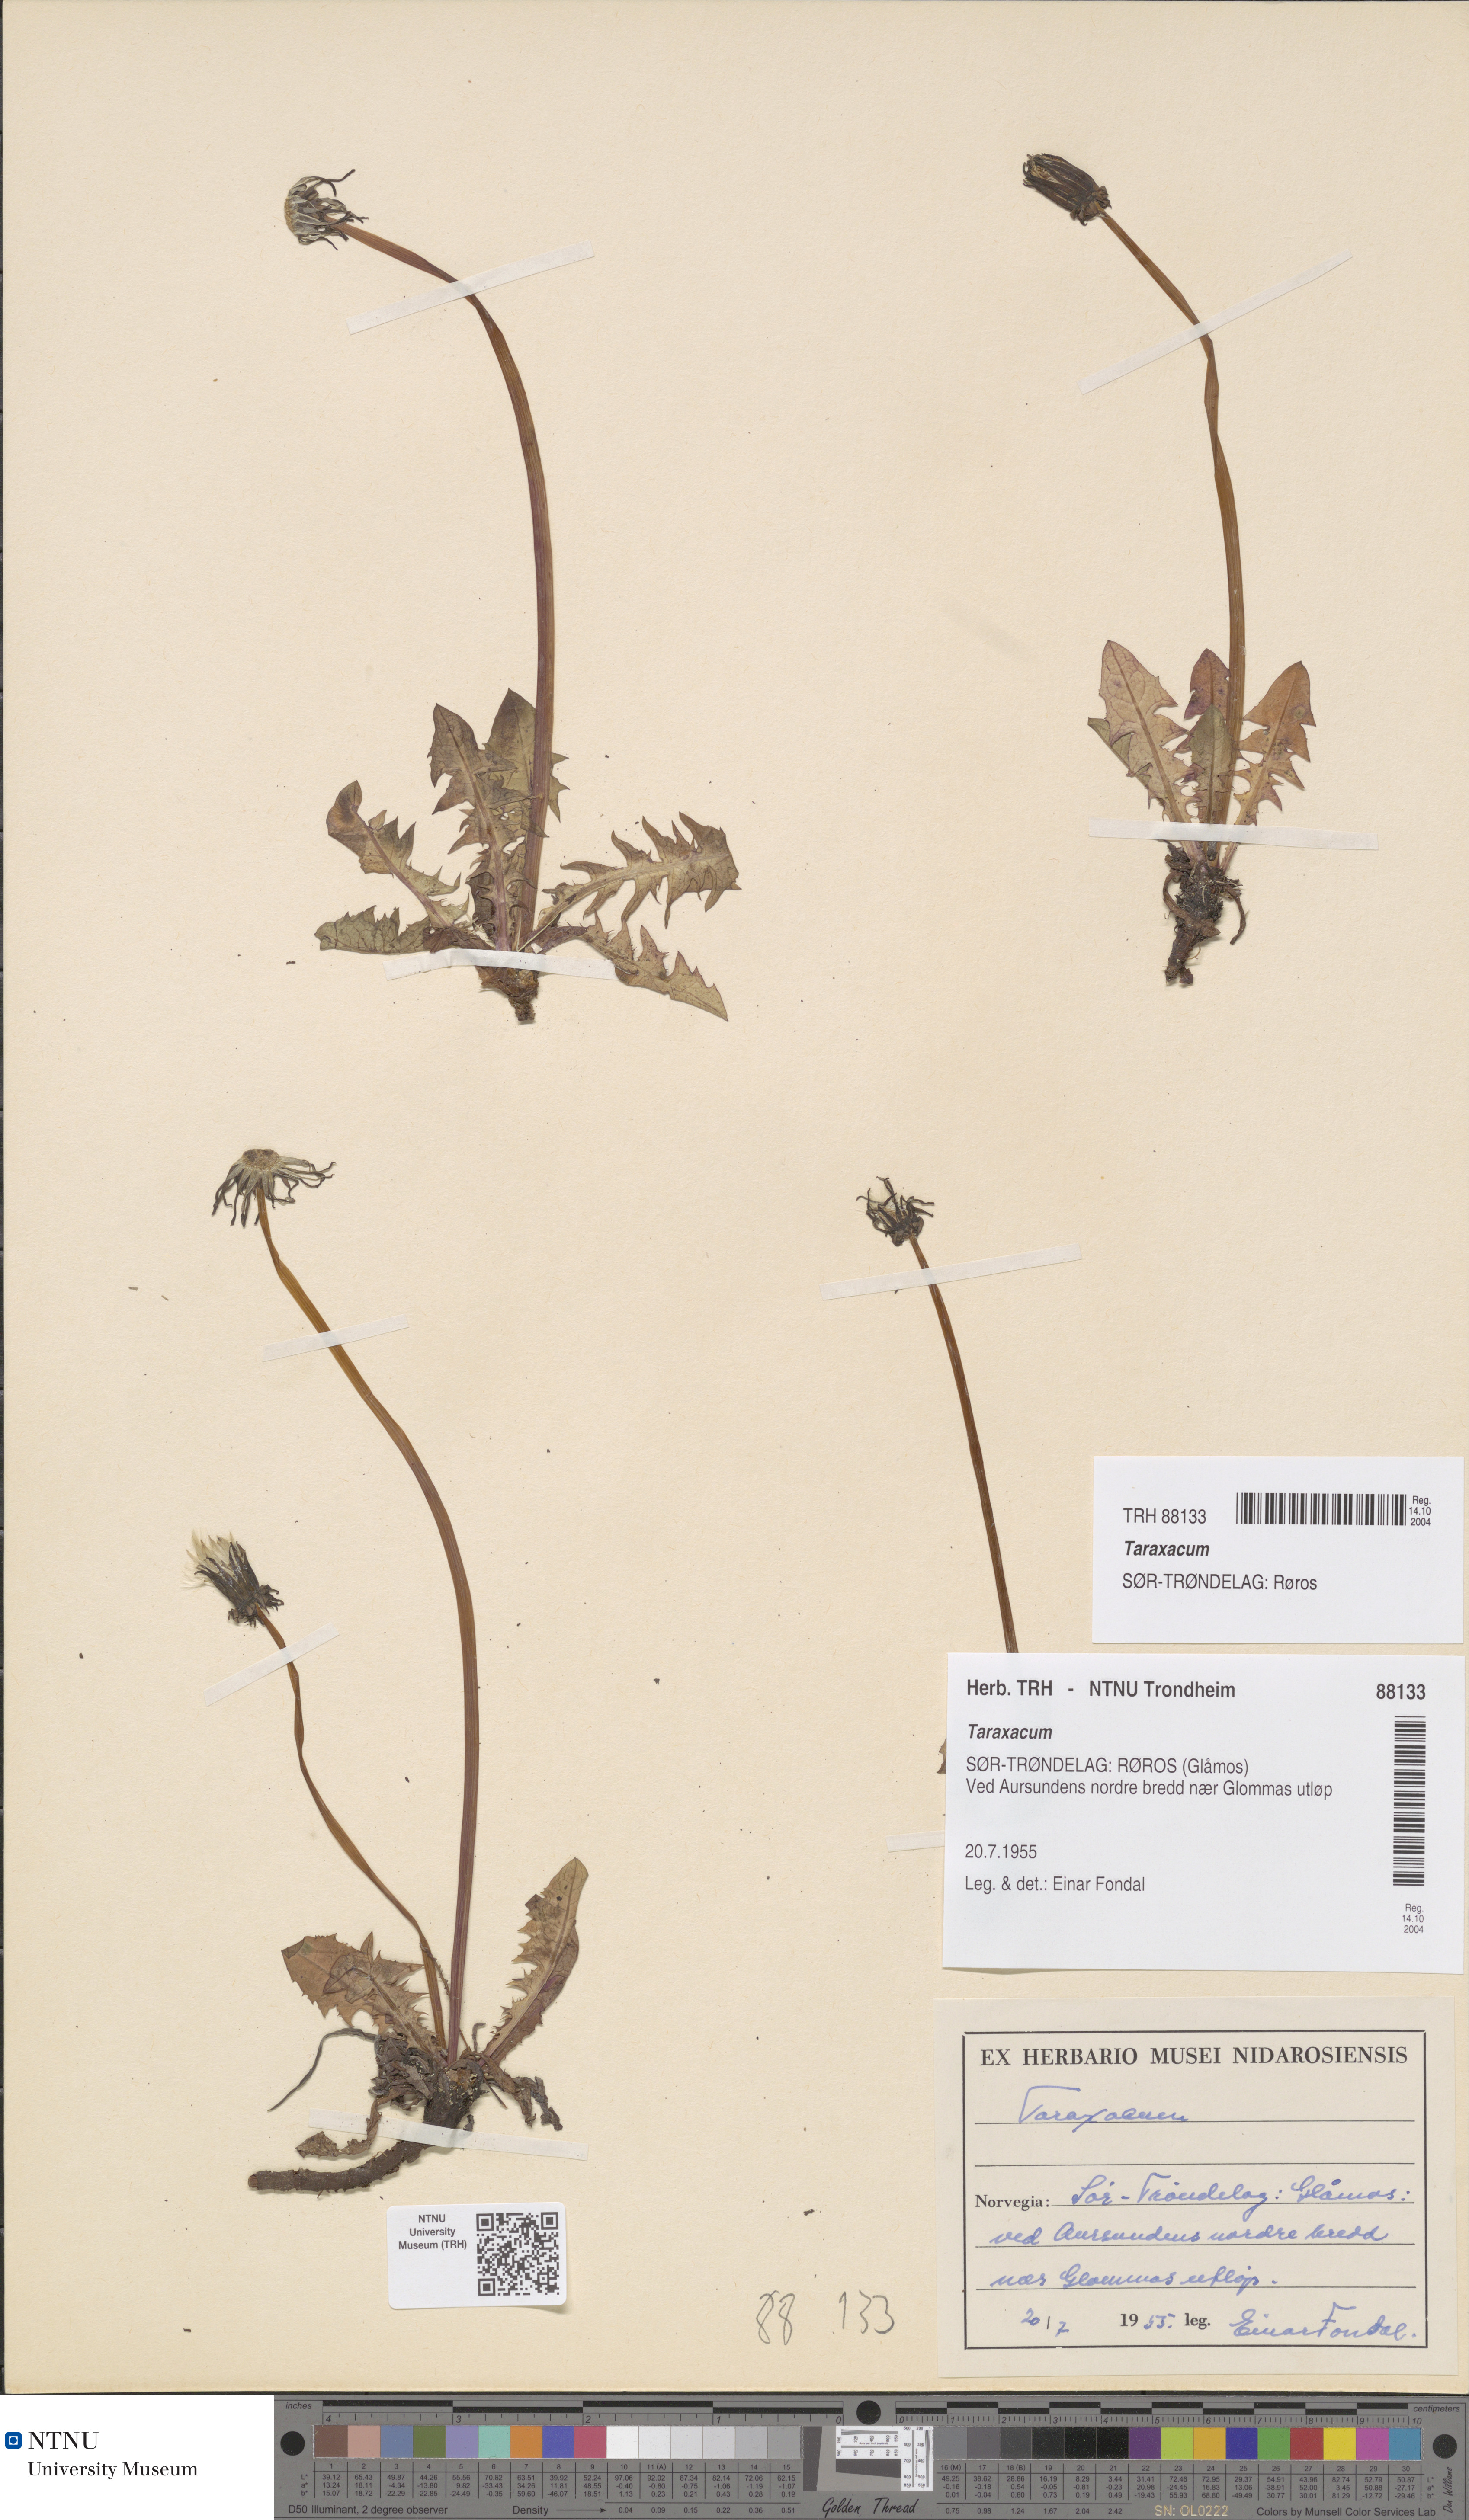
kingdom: Plantae
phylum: Tracheophyta
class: Magnoliopsida
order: Asterales
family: Asteraceae
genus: Taraxacum
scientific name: Taraxacum
